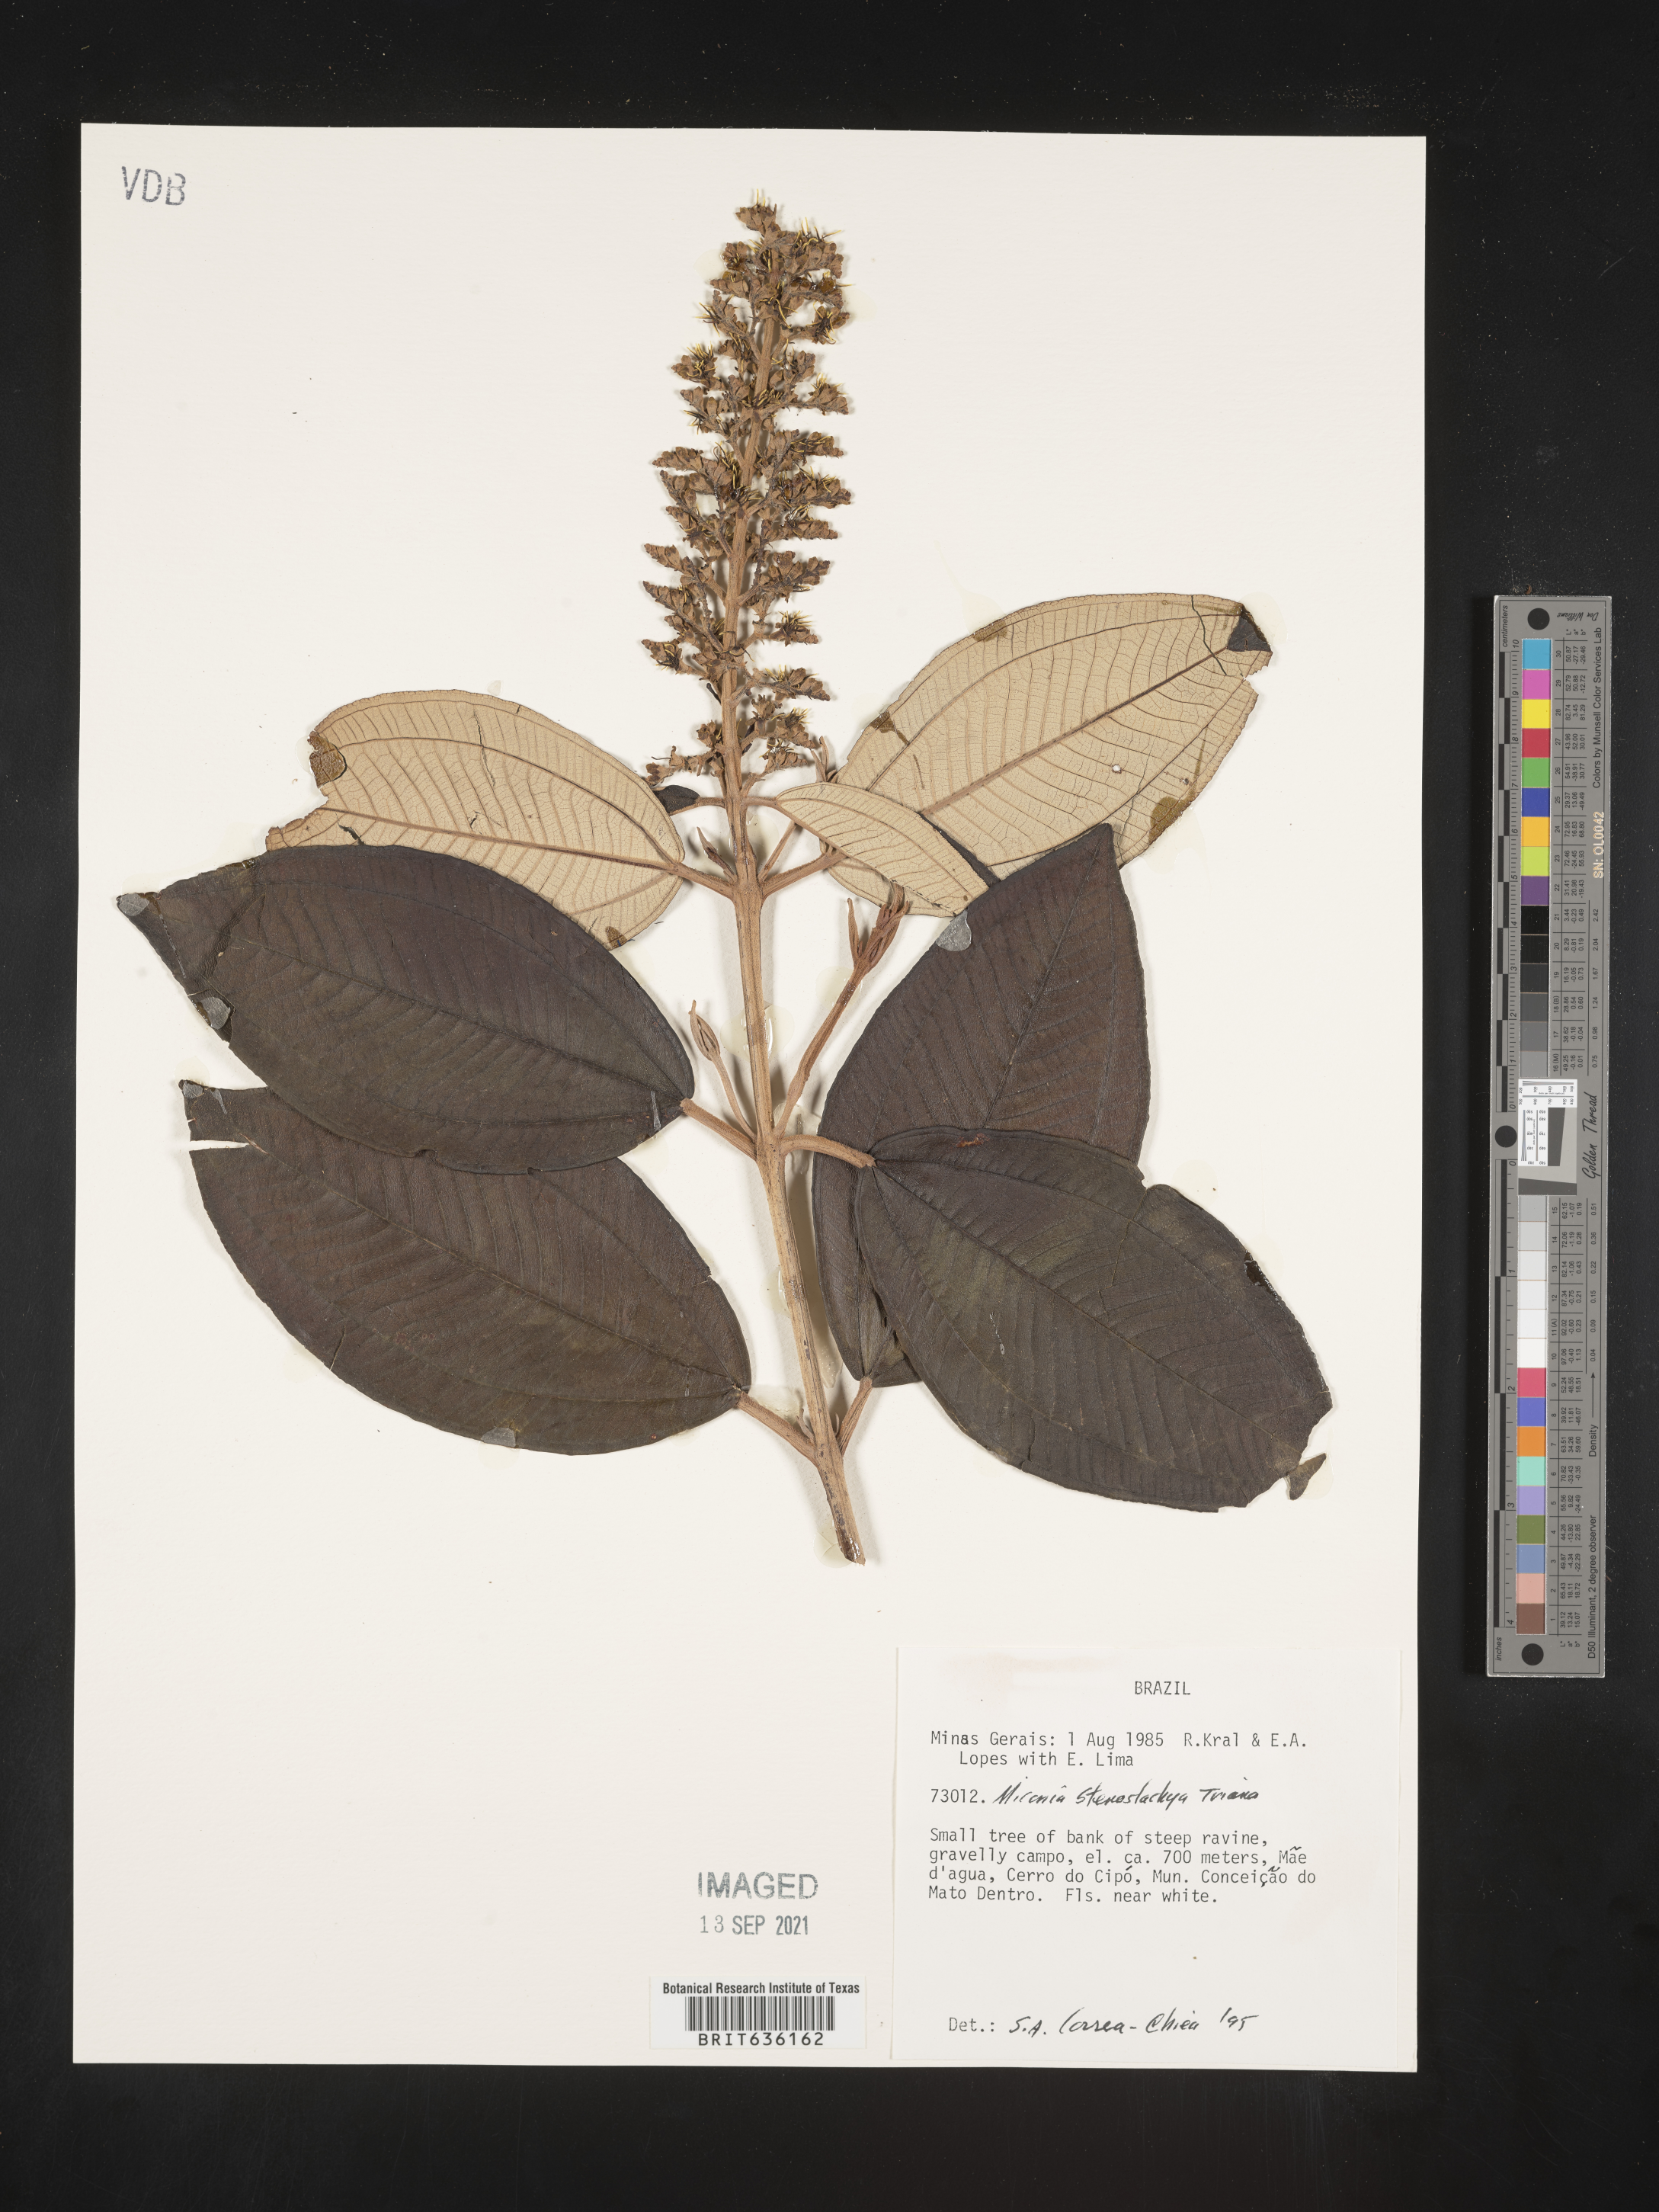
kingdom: Plantae
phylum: Tracheophyta
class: Magnoliopsida
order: Myrtales
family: Melastomataceae
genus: Miconia
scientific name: Miconia
